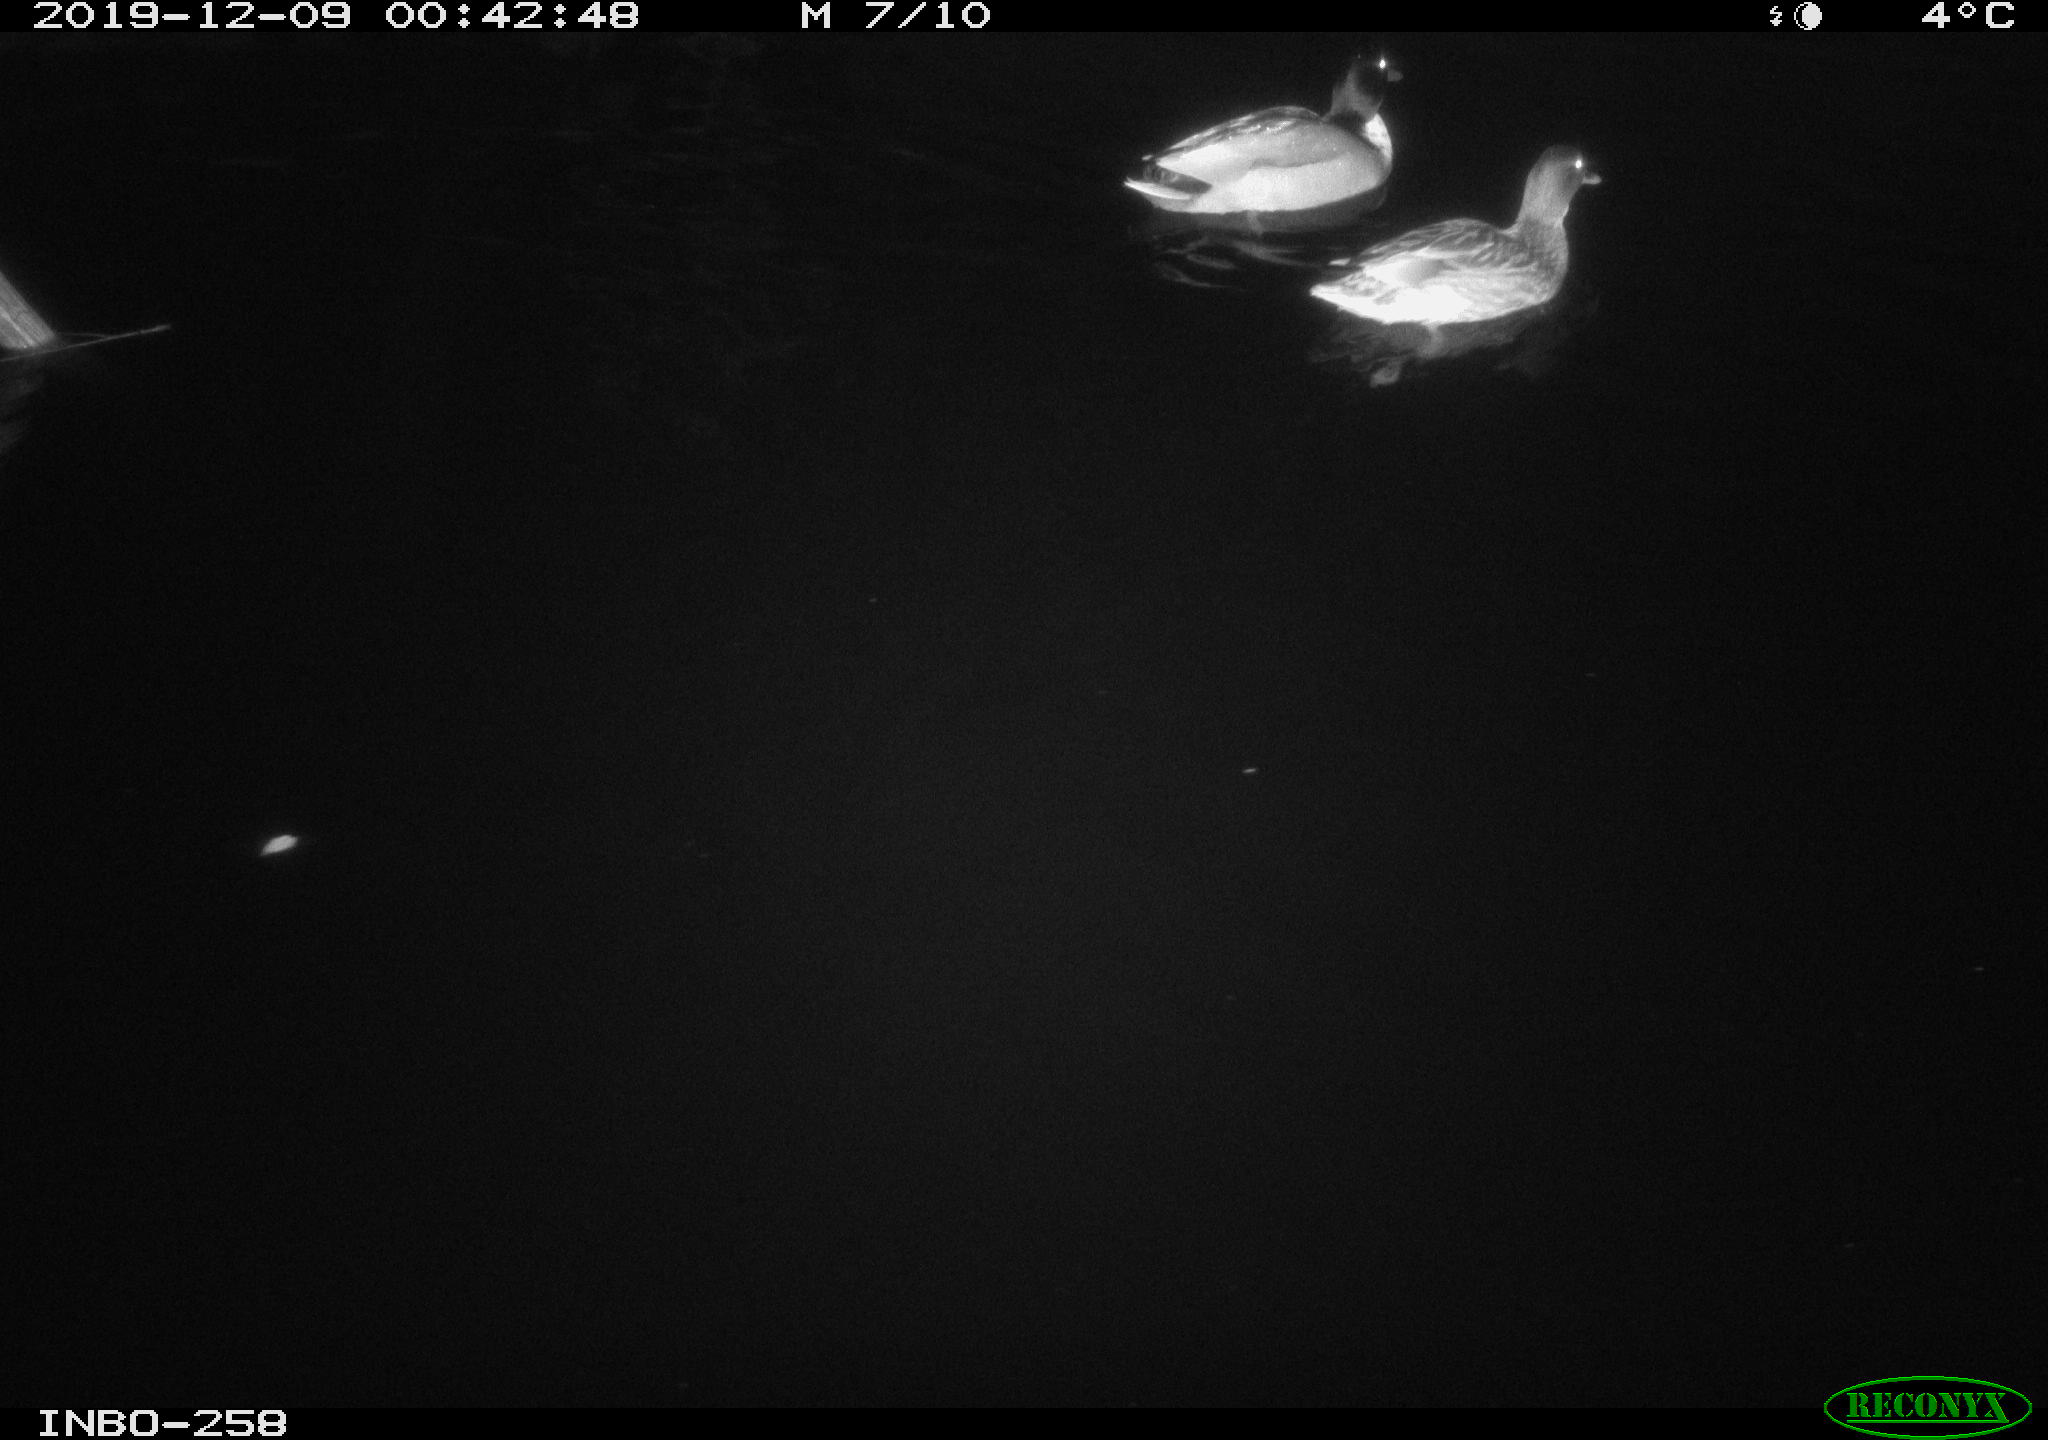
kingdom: Animalia
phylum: Chordata
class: Aves
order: Anseriformes
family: Anatidae
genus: Anas
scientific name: Anas platyrhynchos
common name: Mallard
